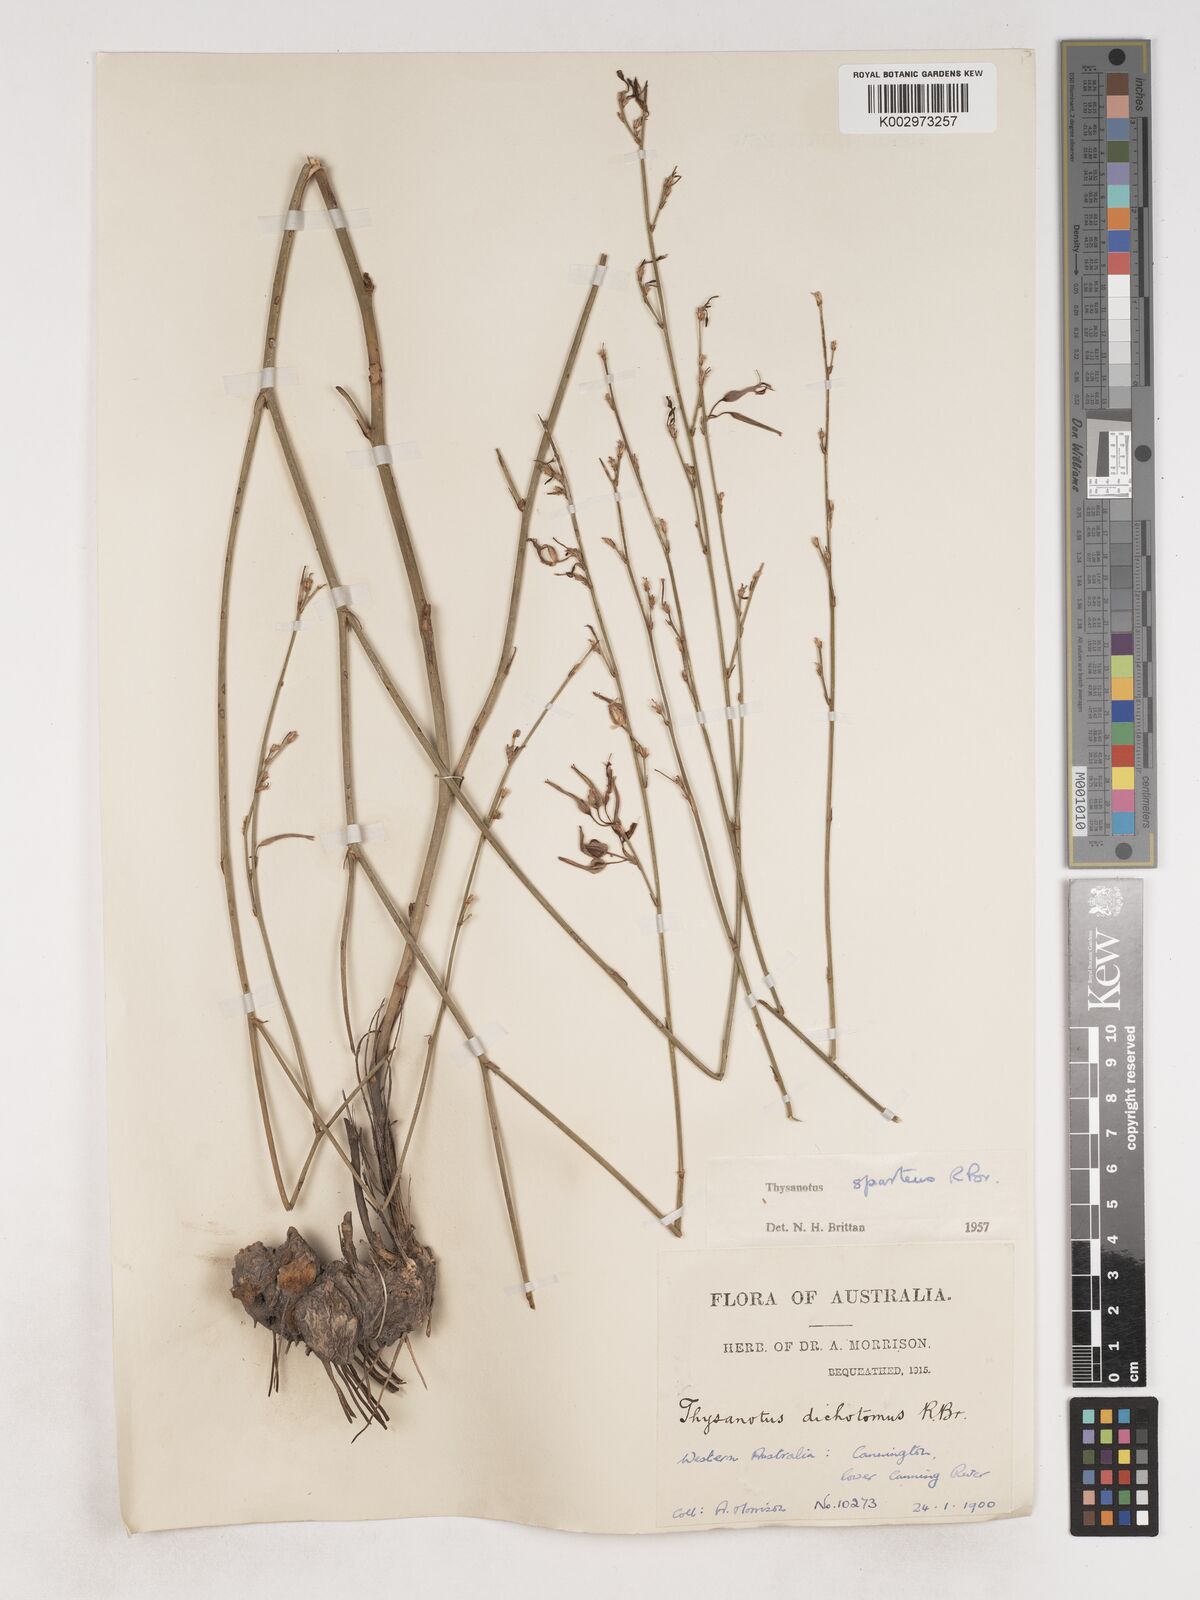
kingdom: Plantae
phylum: Tracheophyta
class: Liliopsida
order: Asparagales
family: Asparagaceae
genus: Thysanotus
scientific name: Thysanotus sparteus
